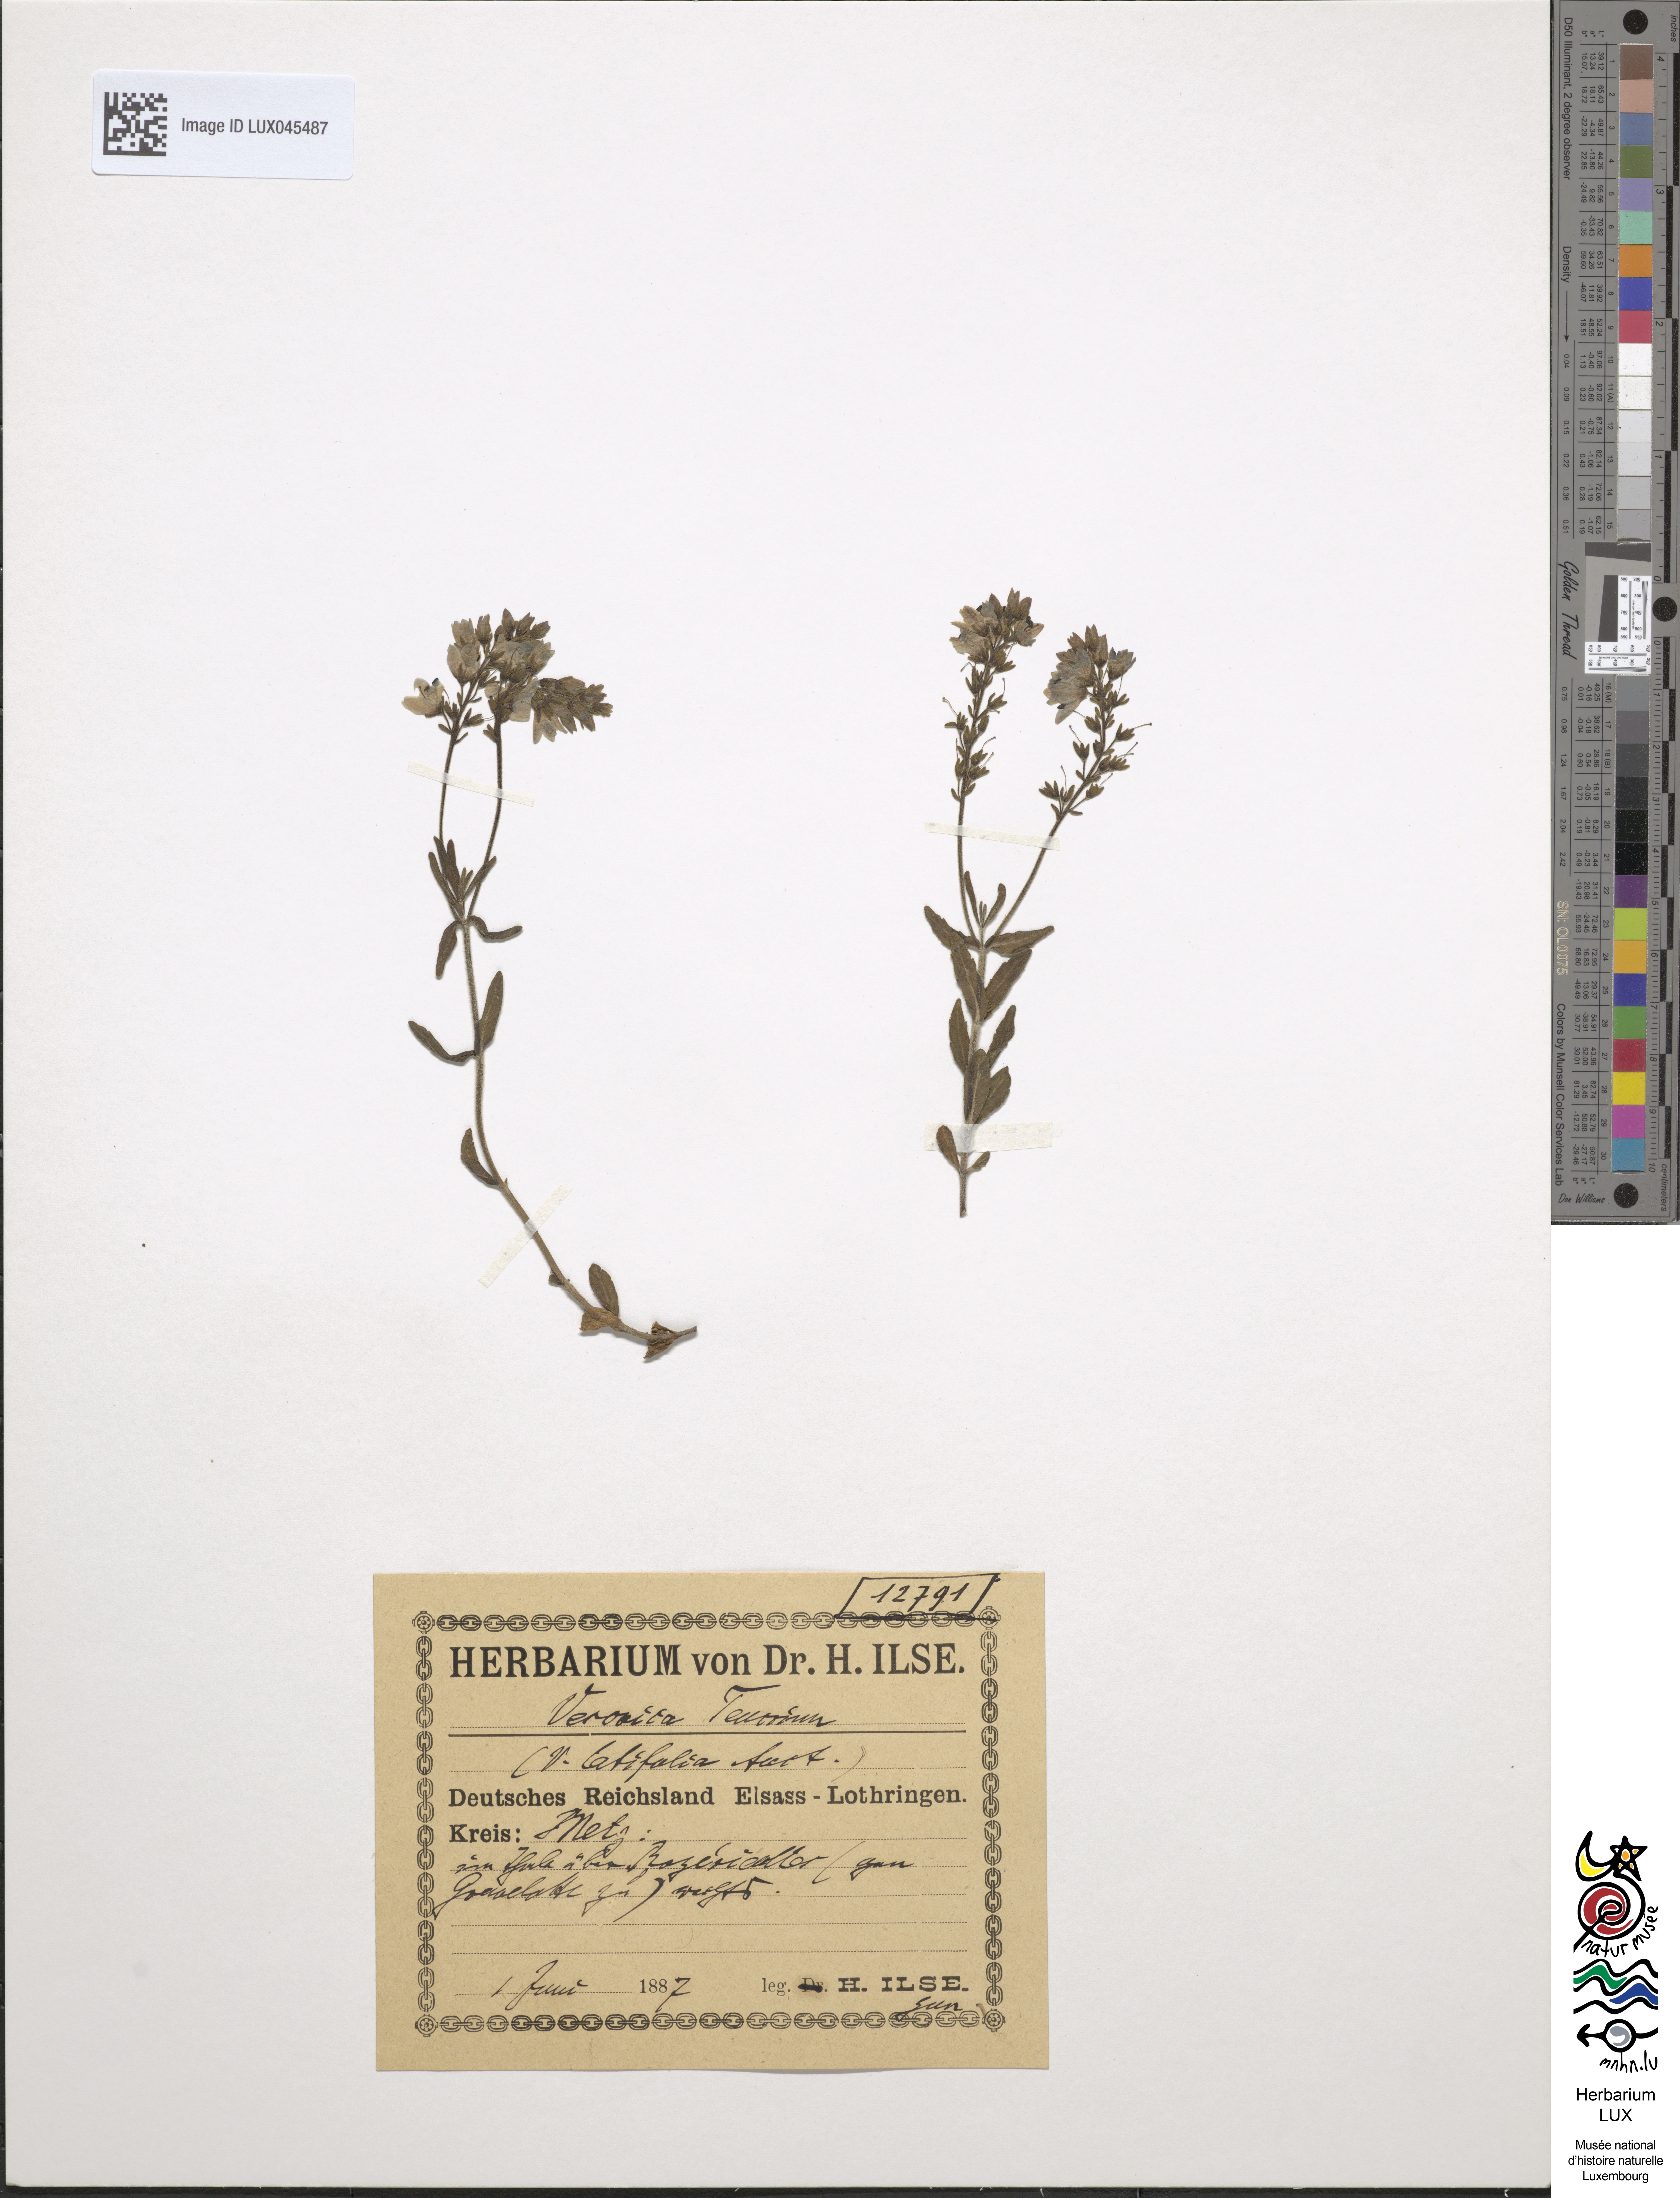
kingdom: Plantae
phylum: Tracheophyta
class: Magnoliopsida
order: Lamiales
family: Plantaginaceae
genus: Veronica
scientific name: Veronica teucrium
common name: Large speedwell
